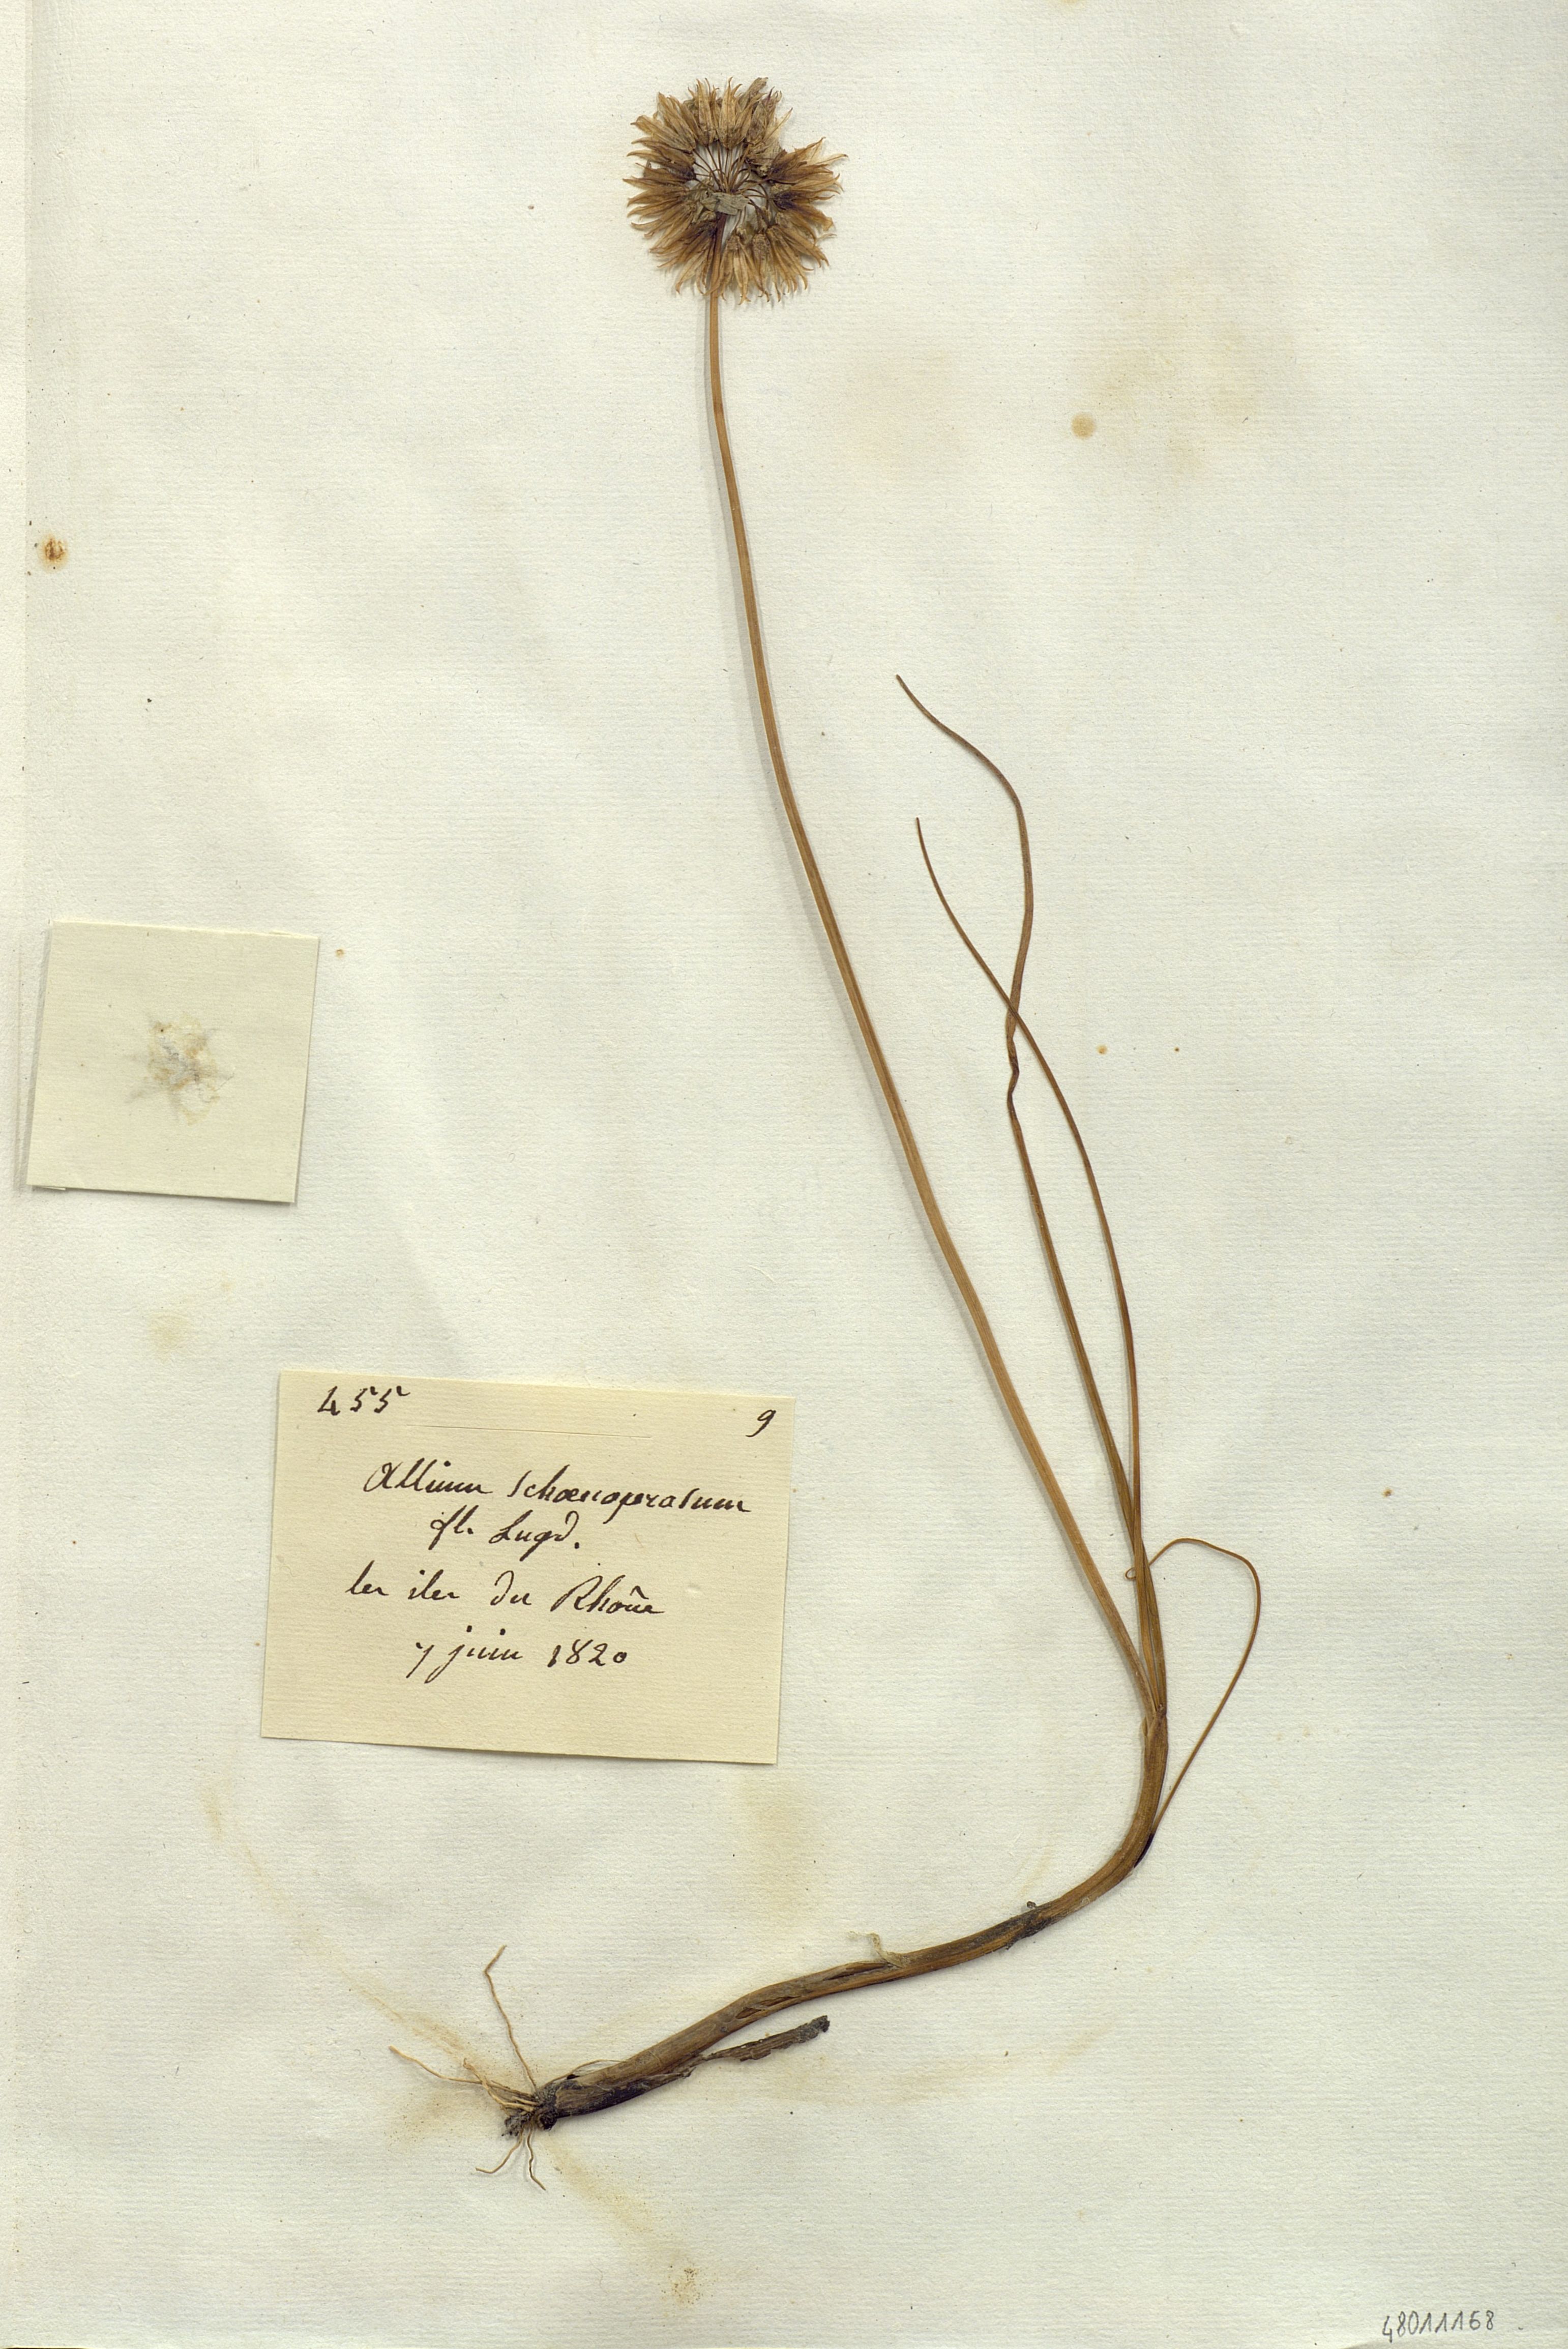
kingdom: Plantae
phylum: Tracheophyta
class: Liliopsida
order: Liliales
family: Liliaceae
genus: Allium
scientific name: Allium
